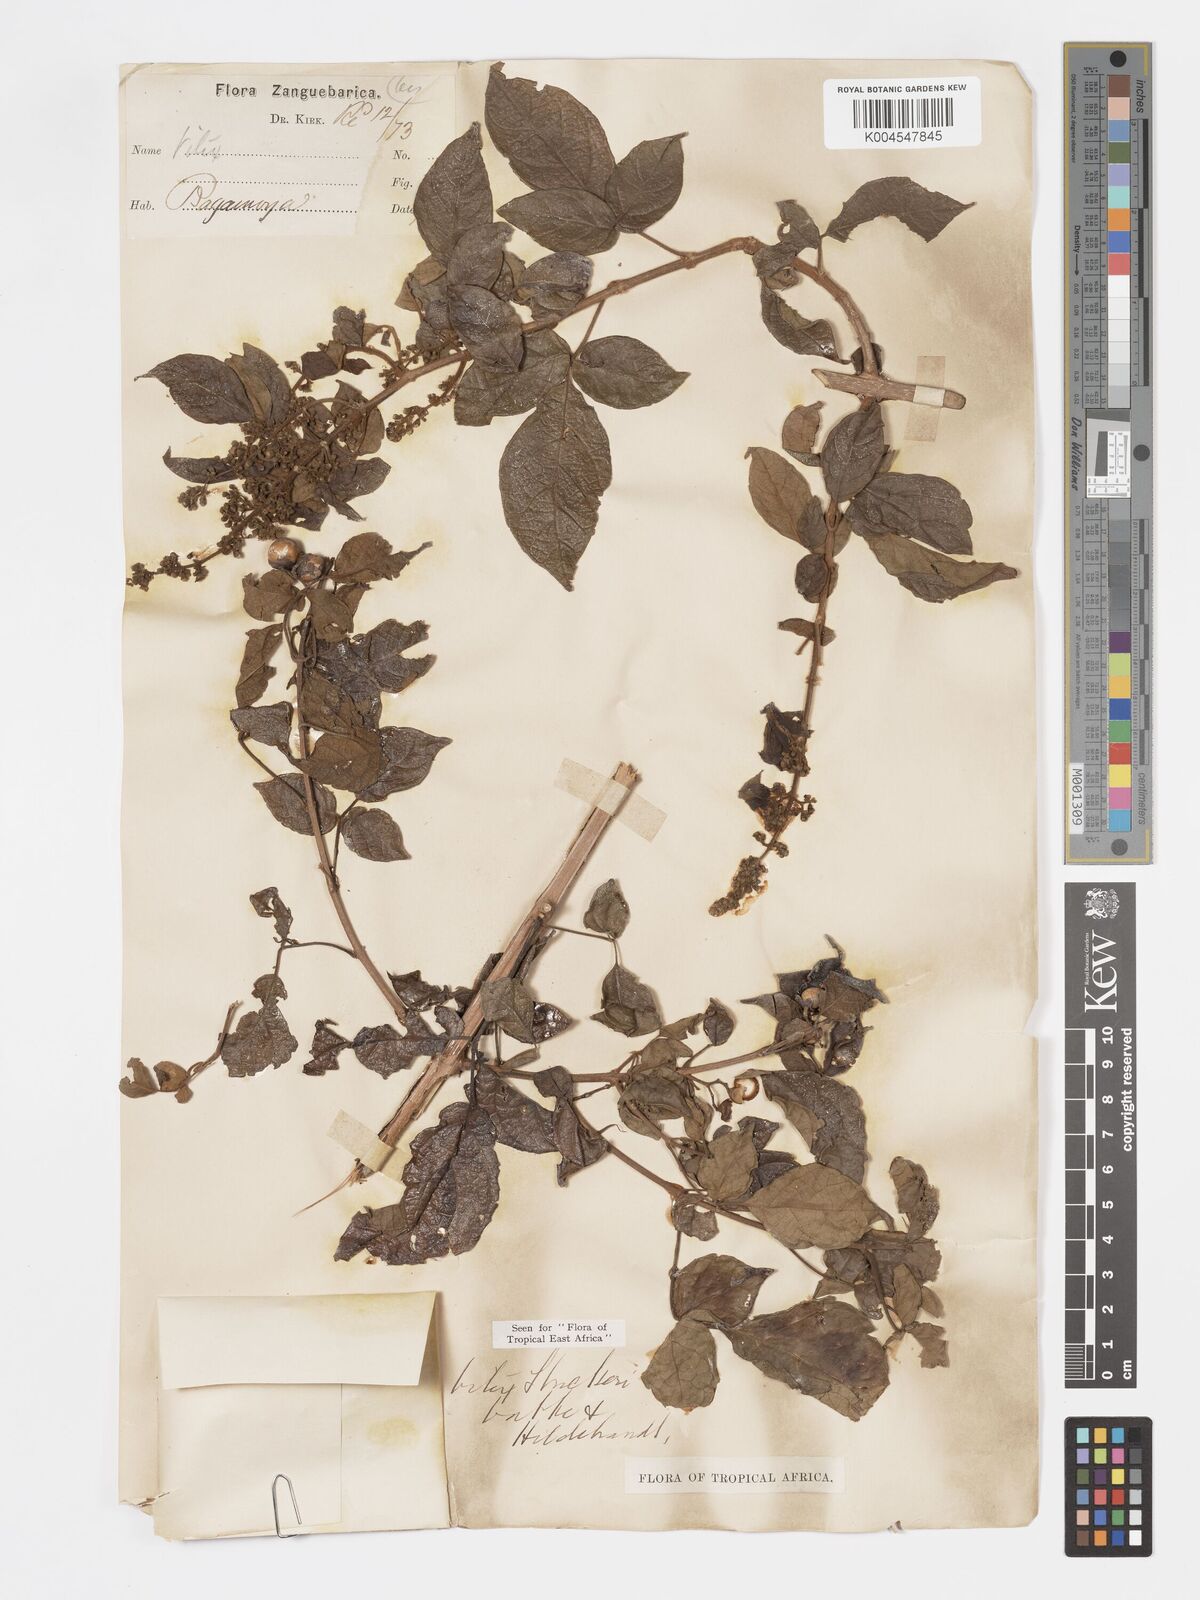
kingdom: Plantae
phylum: Tracheophyta
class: Magnoliopsida
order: Lamiales
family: Lamiaceae
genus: Vitex
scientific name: Vitex strickeri
